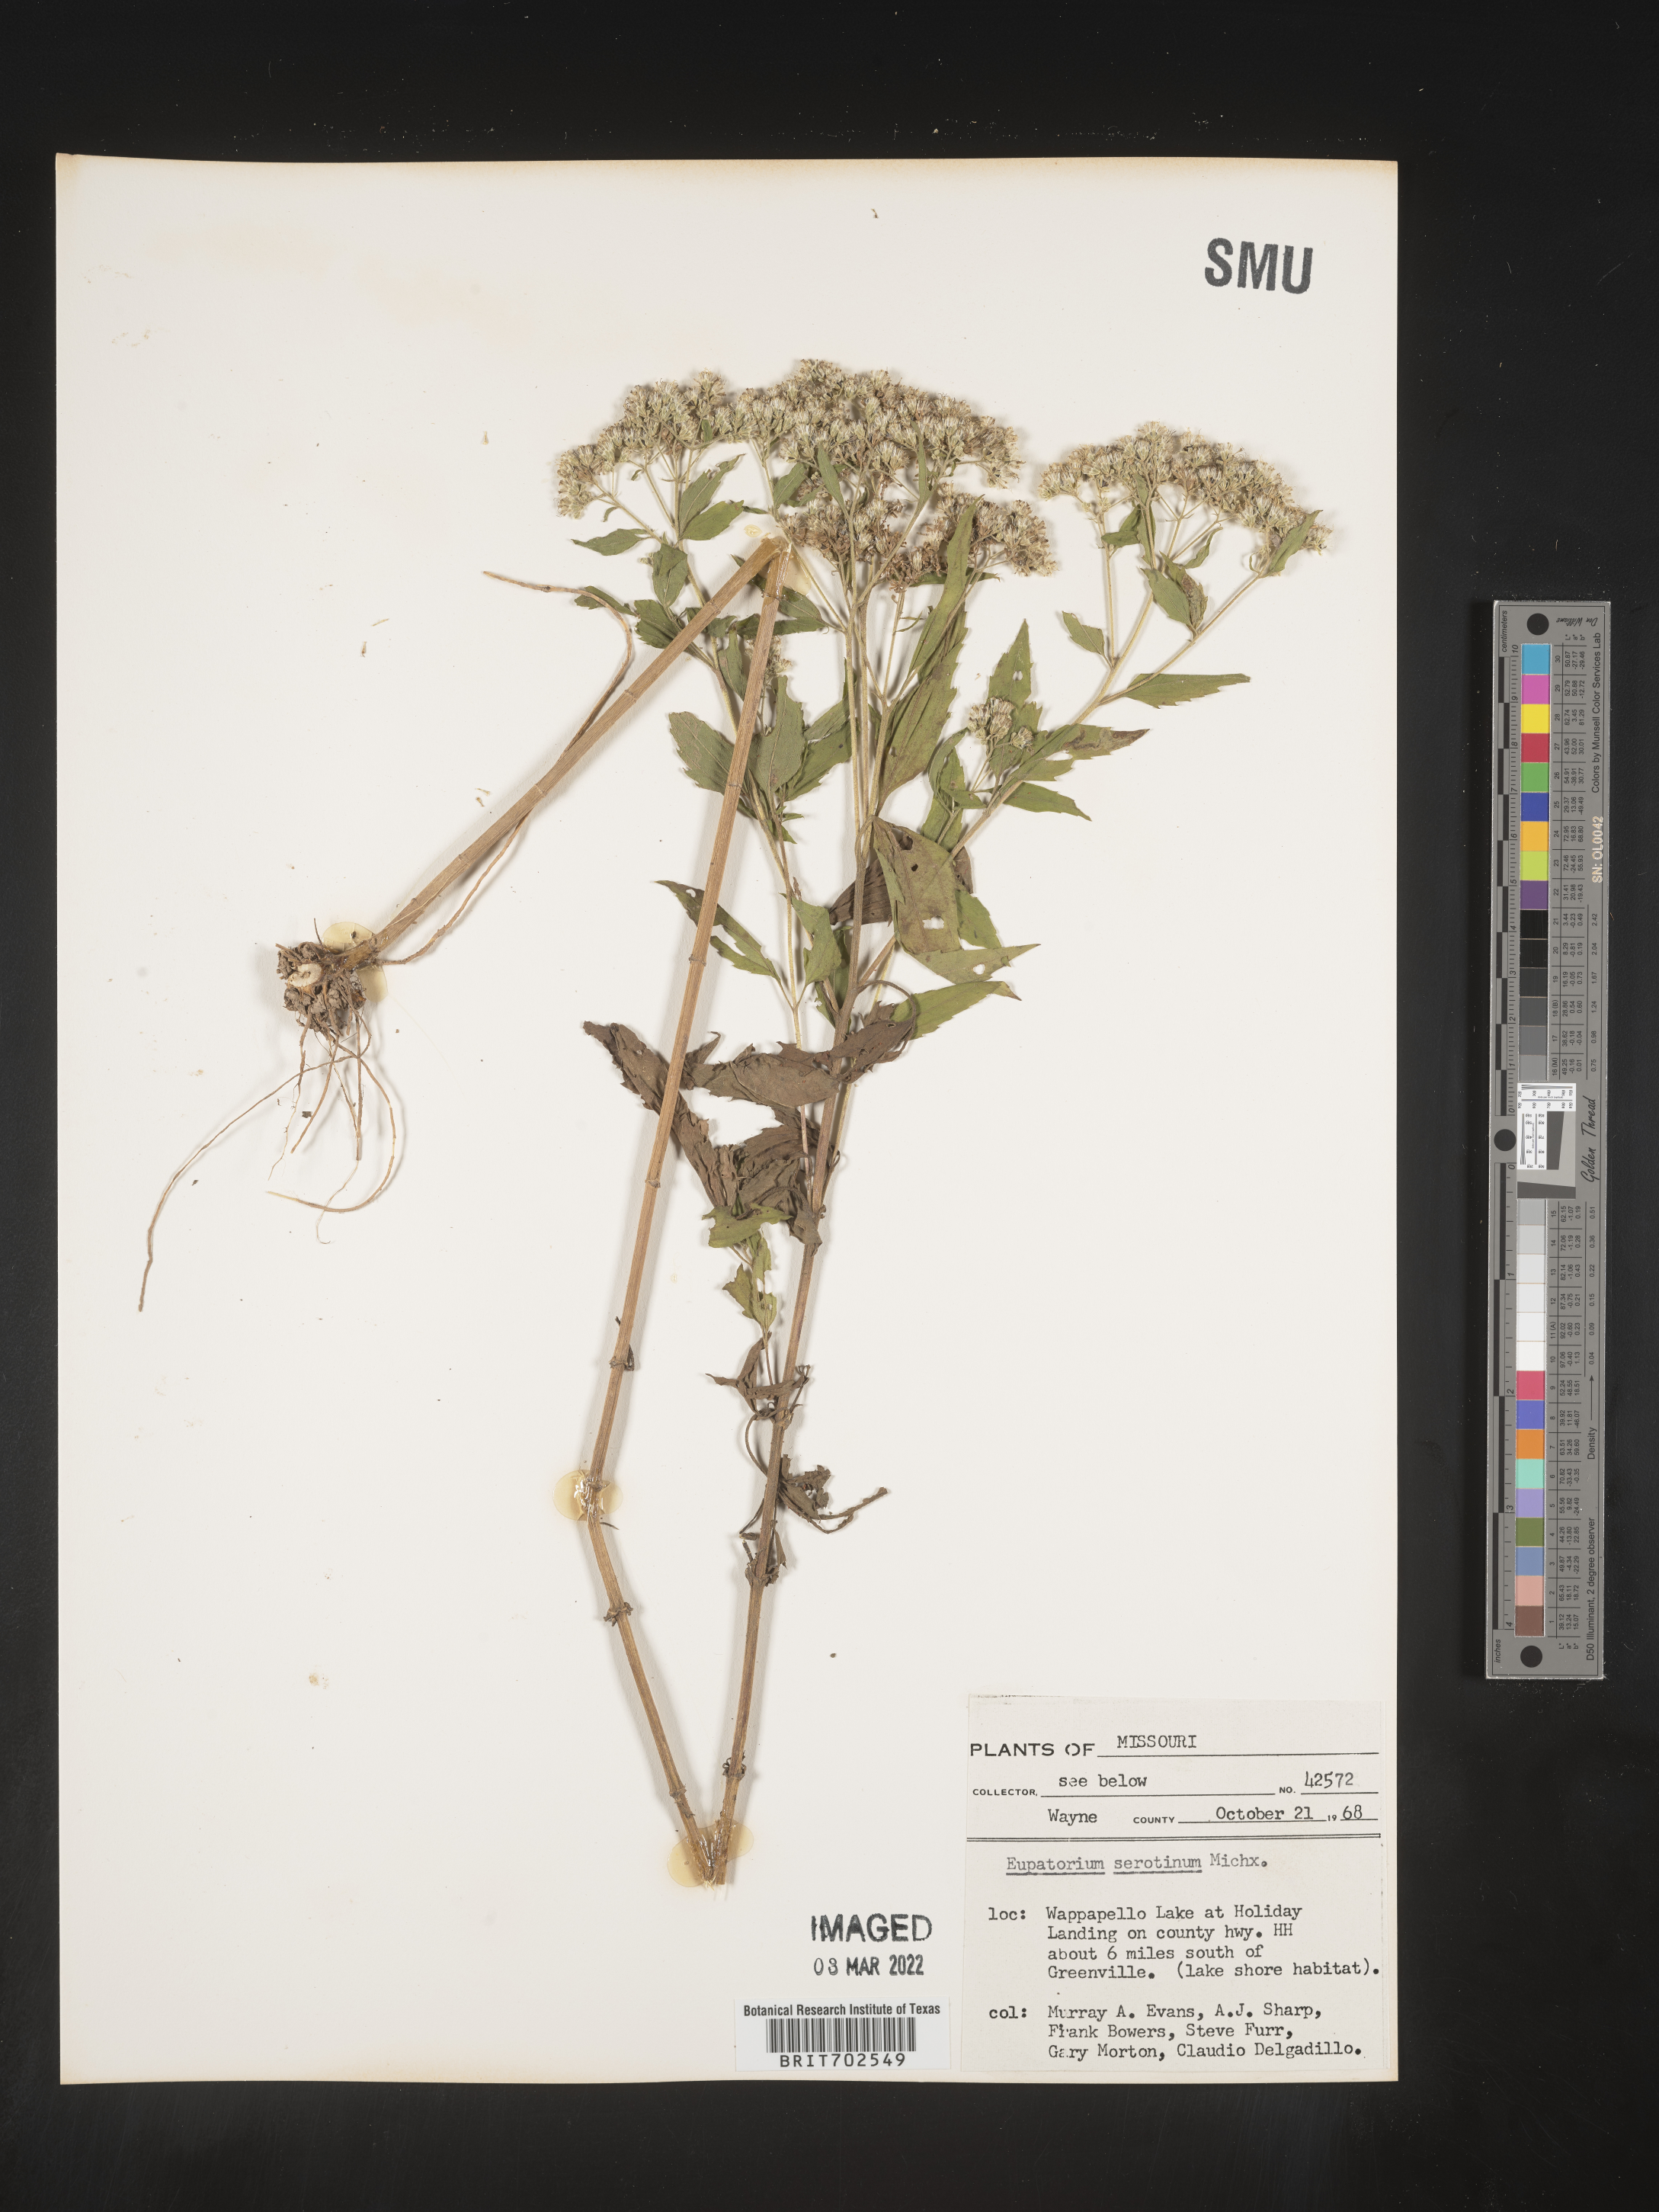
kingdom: Plantae
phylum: Tracheophyta
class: Magnoliopsida
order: Asterales
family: Asteraceae
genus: Eupatorium
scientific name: Eupatorium serotinum
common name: Late boneset
